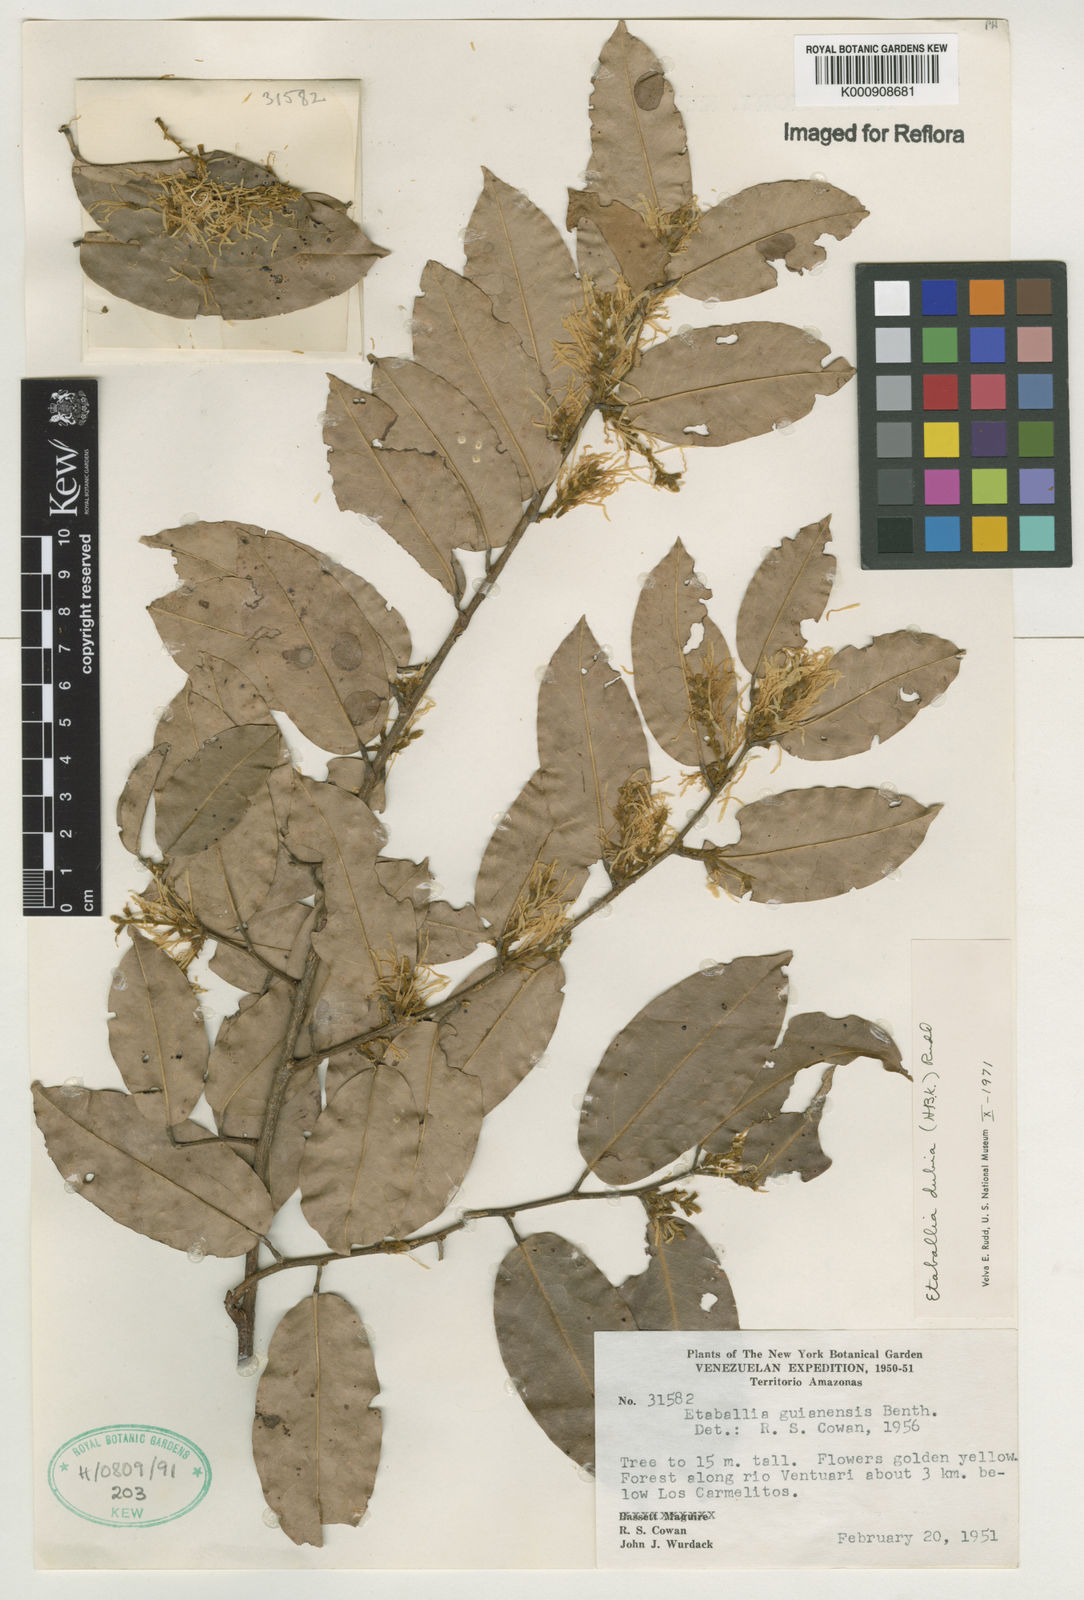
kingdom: Plantae
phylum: Tracheophyta
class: Magnoliopsida
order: Fabales
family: Fabaceae
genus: Pterocarpus
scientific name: Pterocarpus dubius
